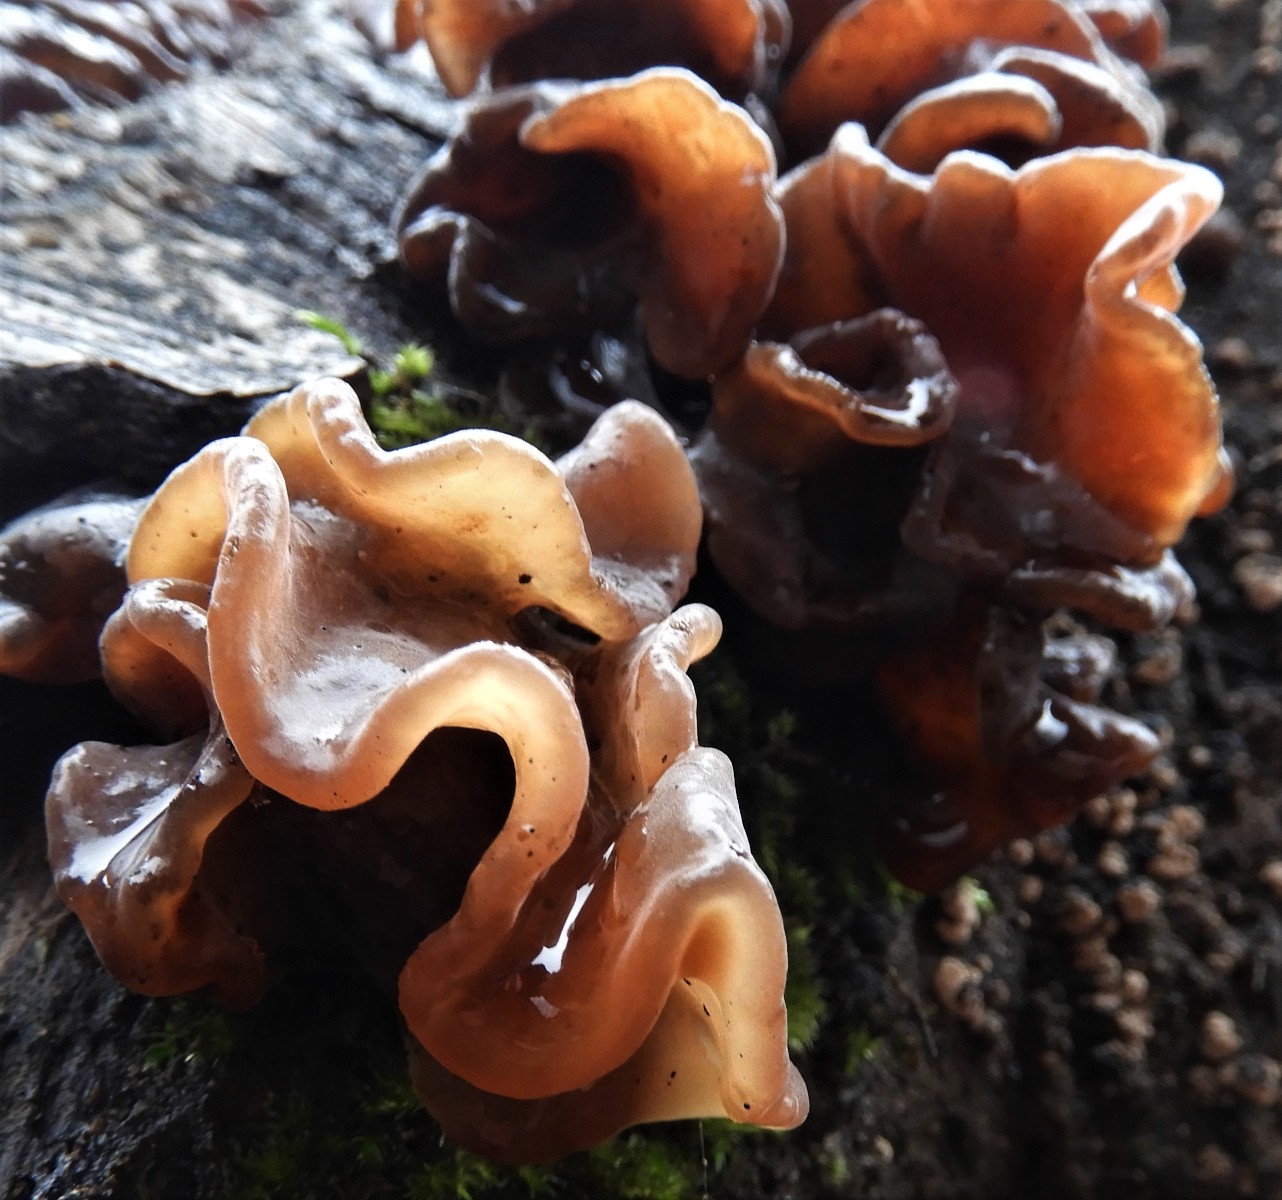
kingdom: Fungi
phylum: Basidiomycota
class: Tremellomycetes
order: Tremellales
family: Tremellaceae
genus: Phaeotremella
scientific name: Phaeotremella foliacea
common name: brun bævresvamp
